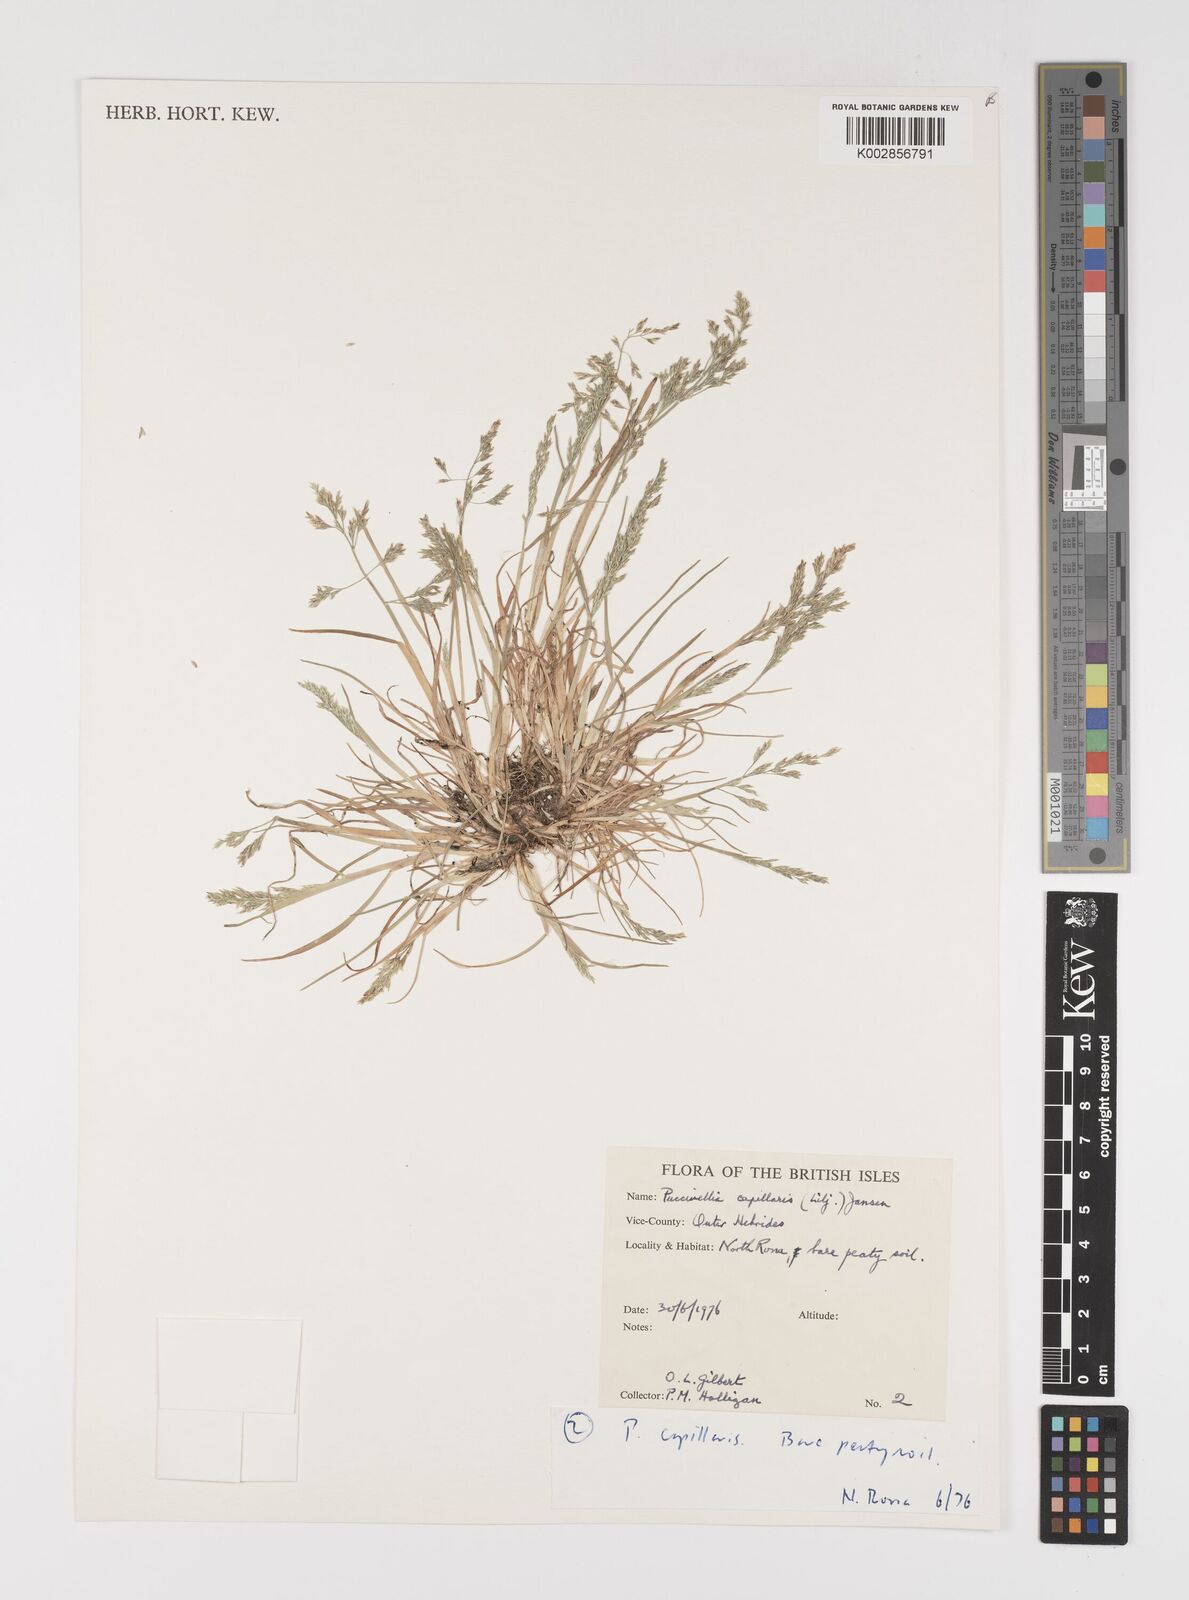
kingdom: Plantae
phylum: Tracheophyta
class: Liliopsida
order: Poales
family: Poaceae
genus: Puccinellia
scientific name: Puccinellia distans
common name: Weeping alkaligrass
